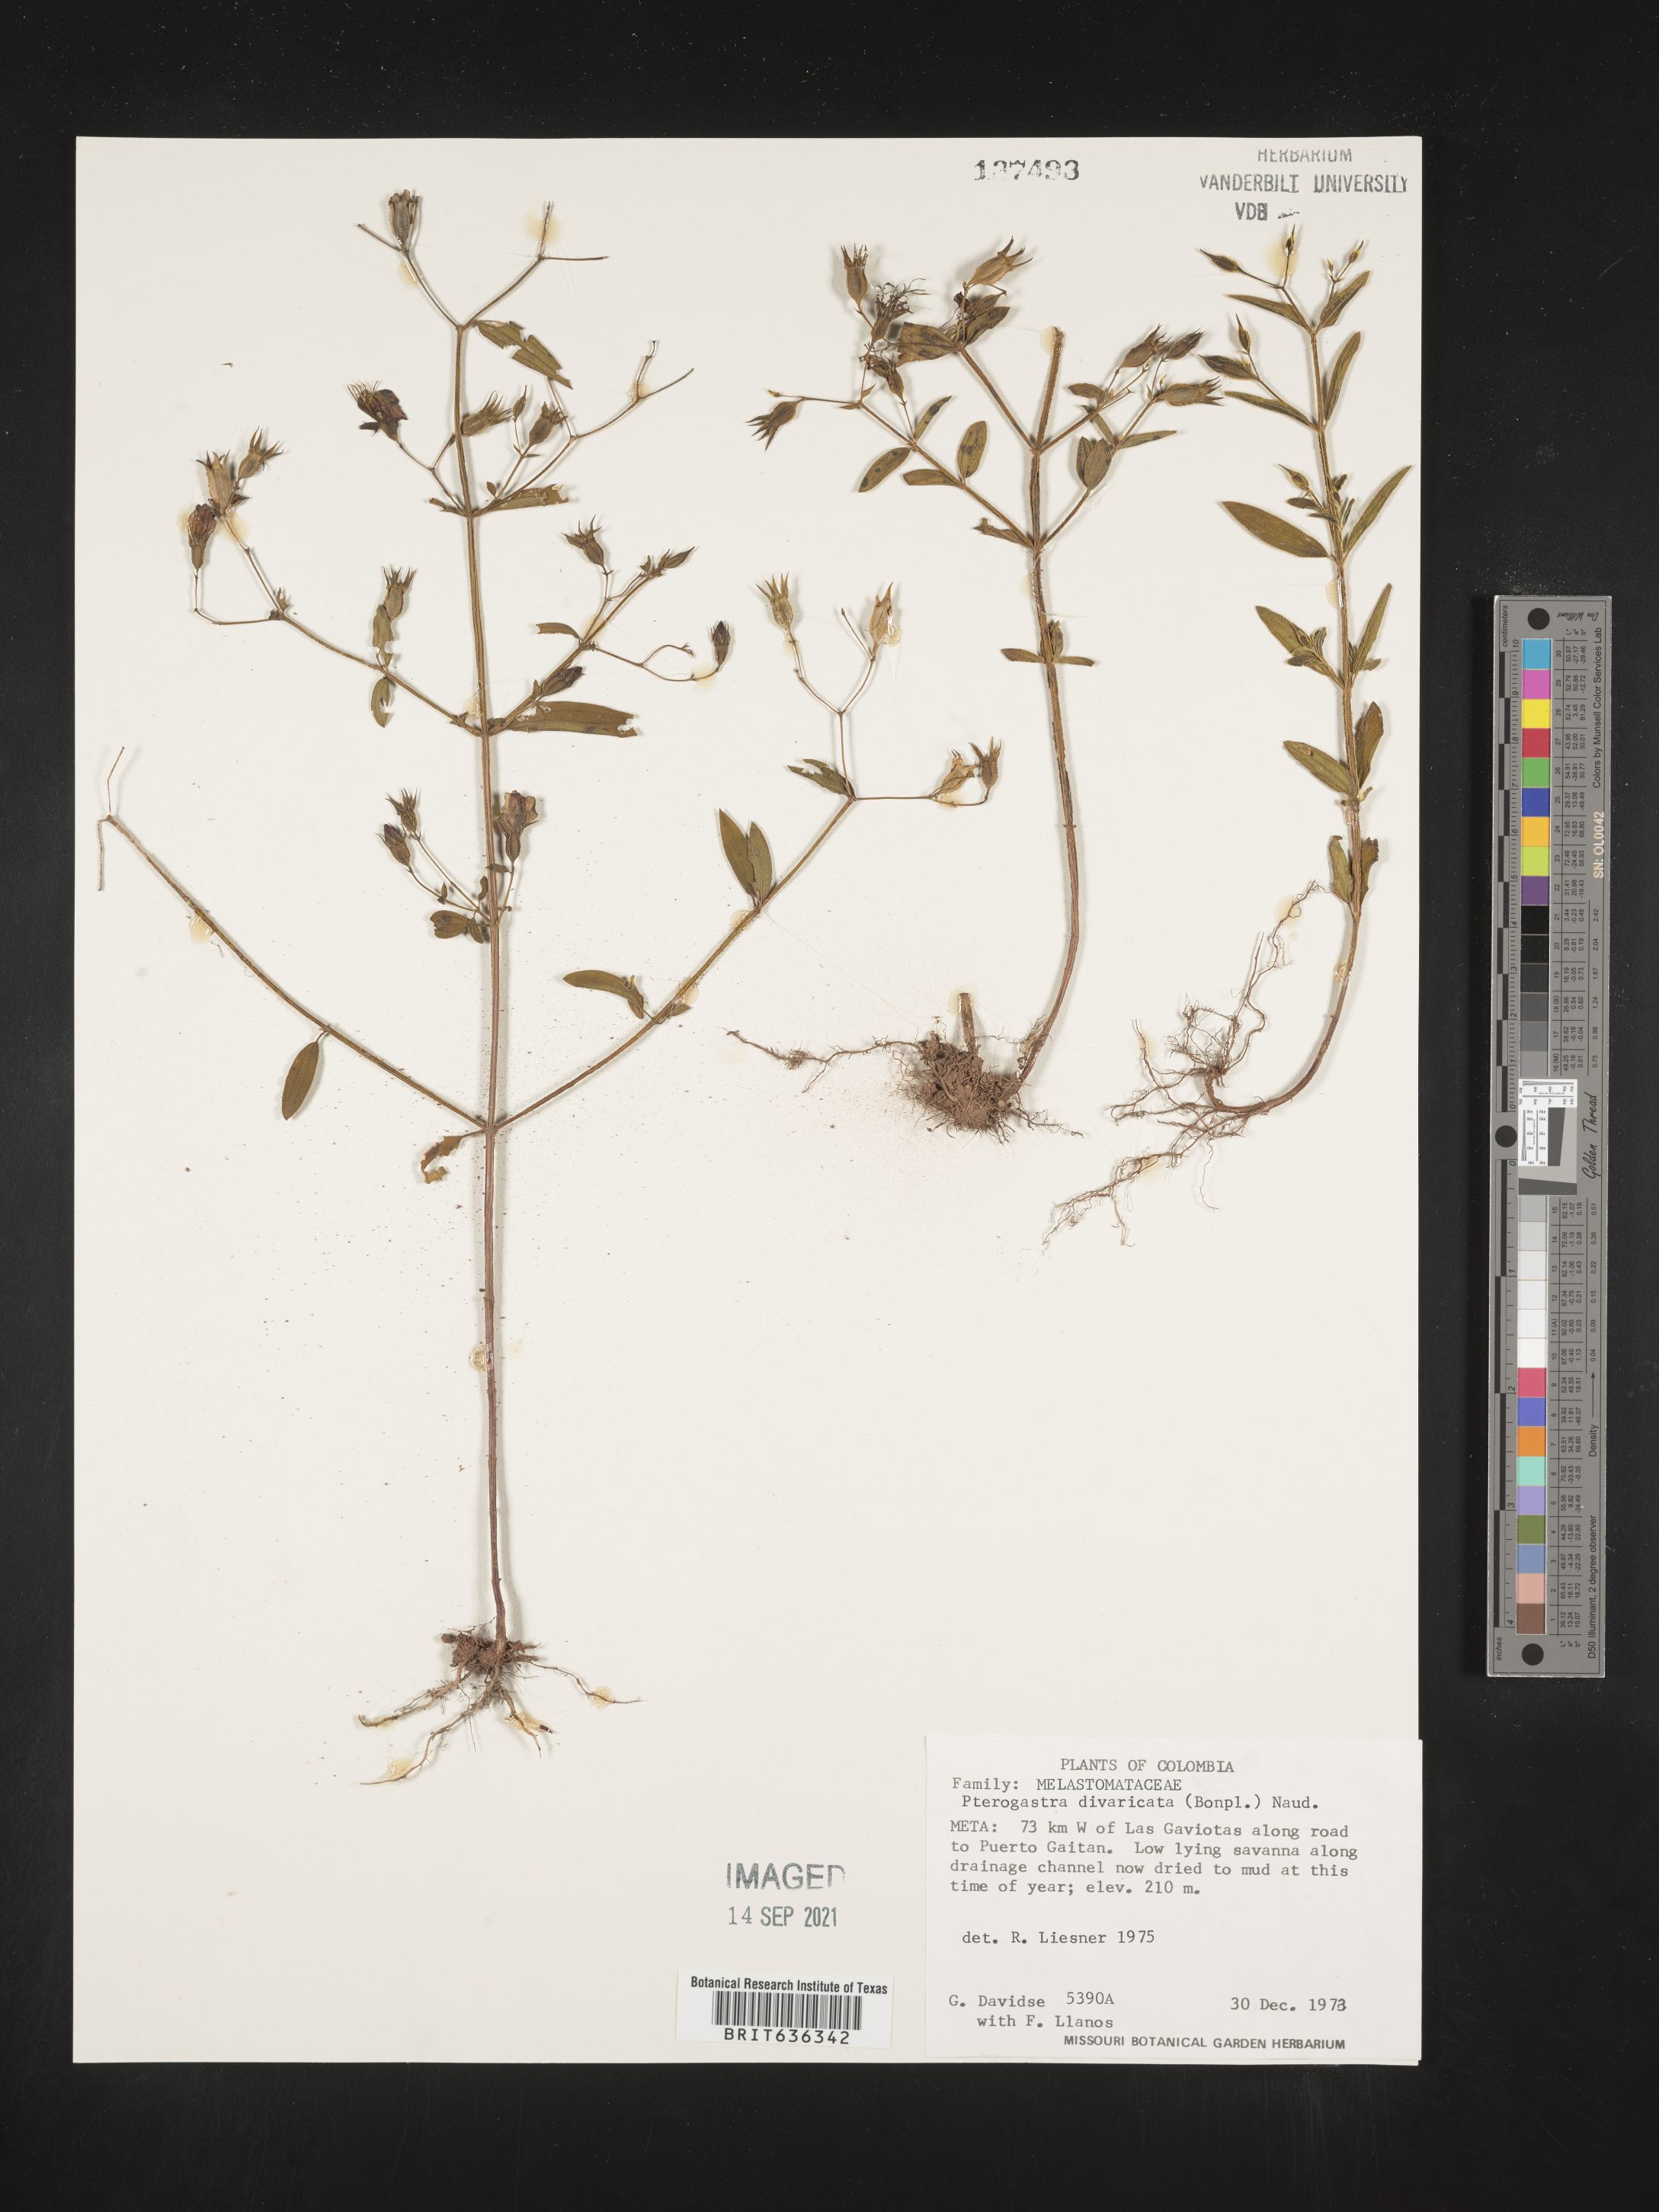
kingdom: Plantae
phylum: Tracheophyta
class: Magnoliopsida
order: Myrtales
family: Melastomataceae
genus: Pterogastra
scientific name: Pterogastra
